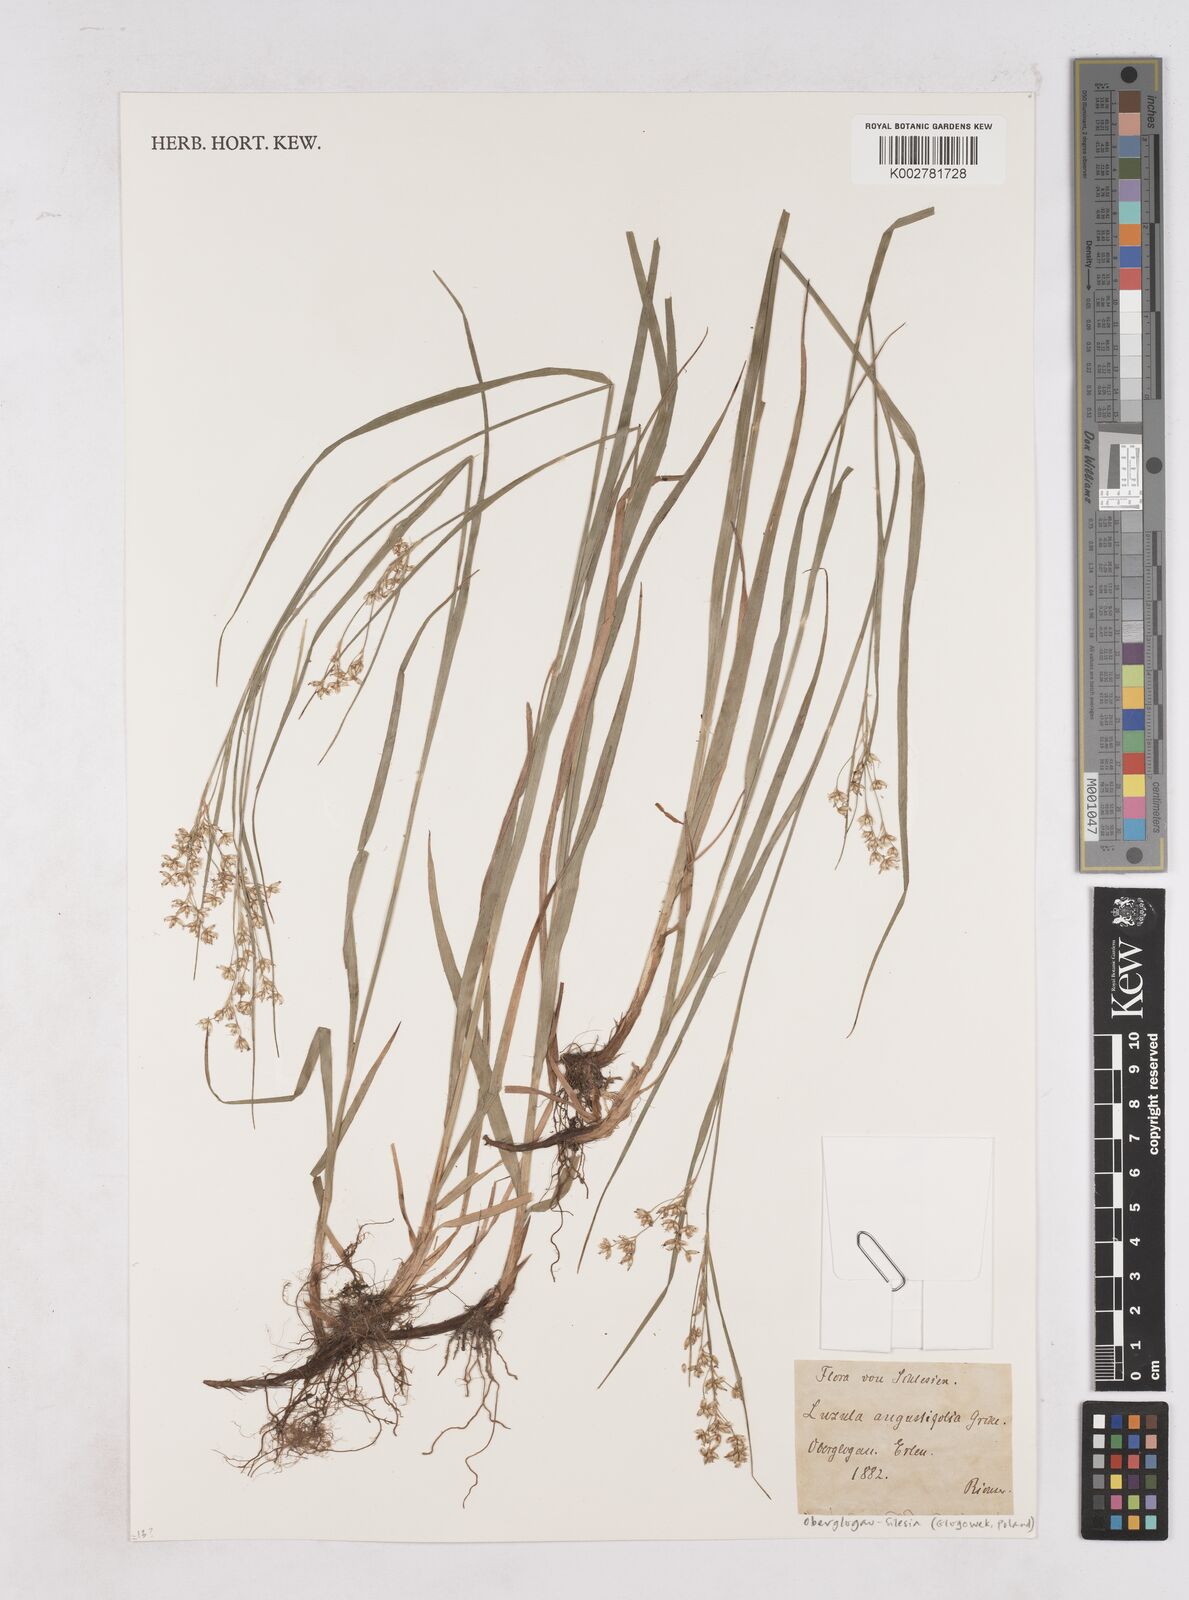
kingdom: Plantae
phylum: Tracheophyta
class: Liliopsida
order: Poales
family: Juncaceae
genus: Luzula
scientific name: Luzula luzuloides
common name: White wood-rush
